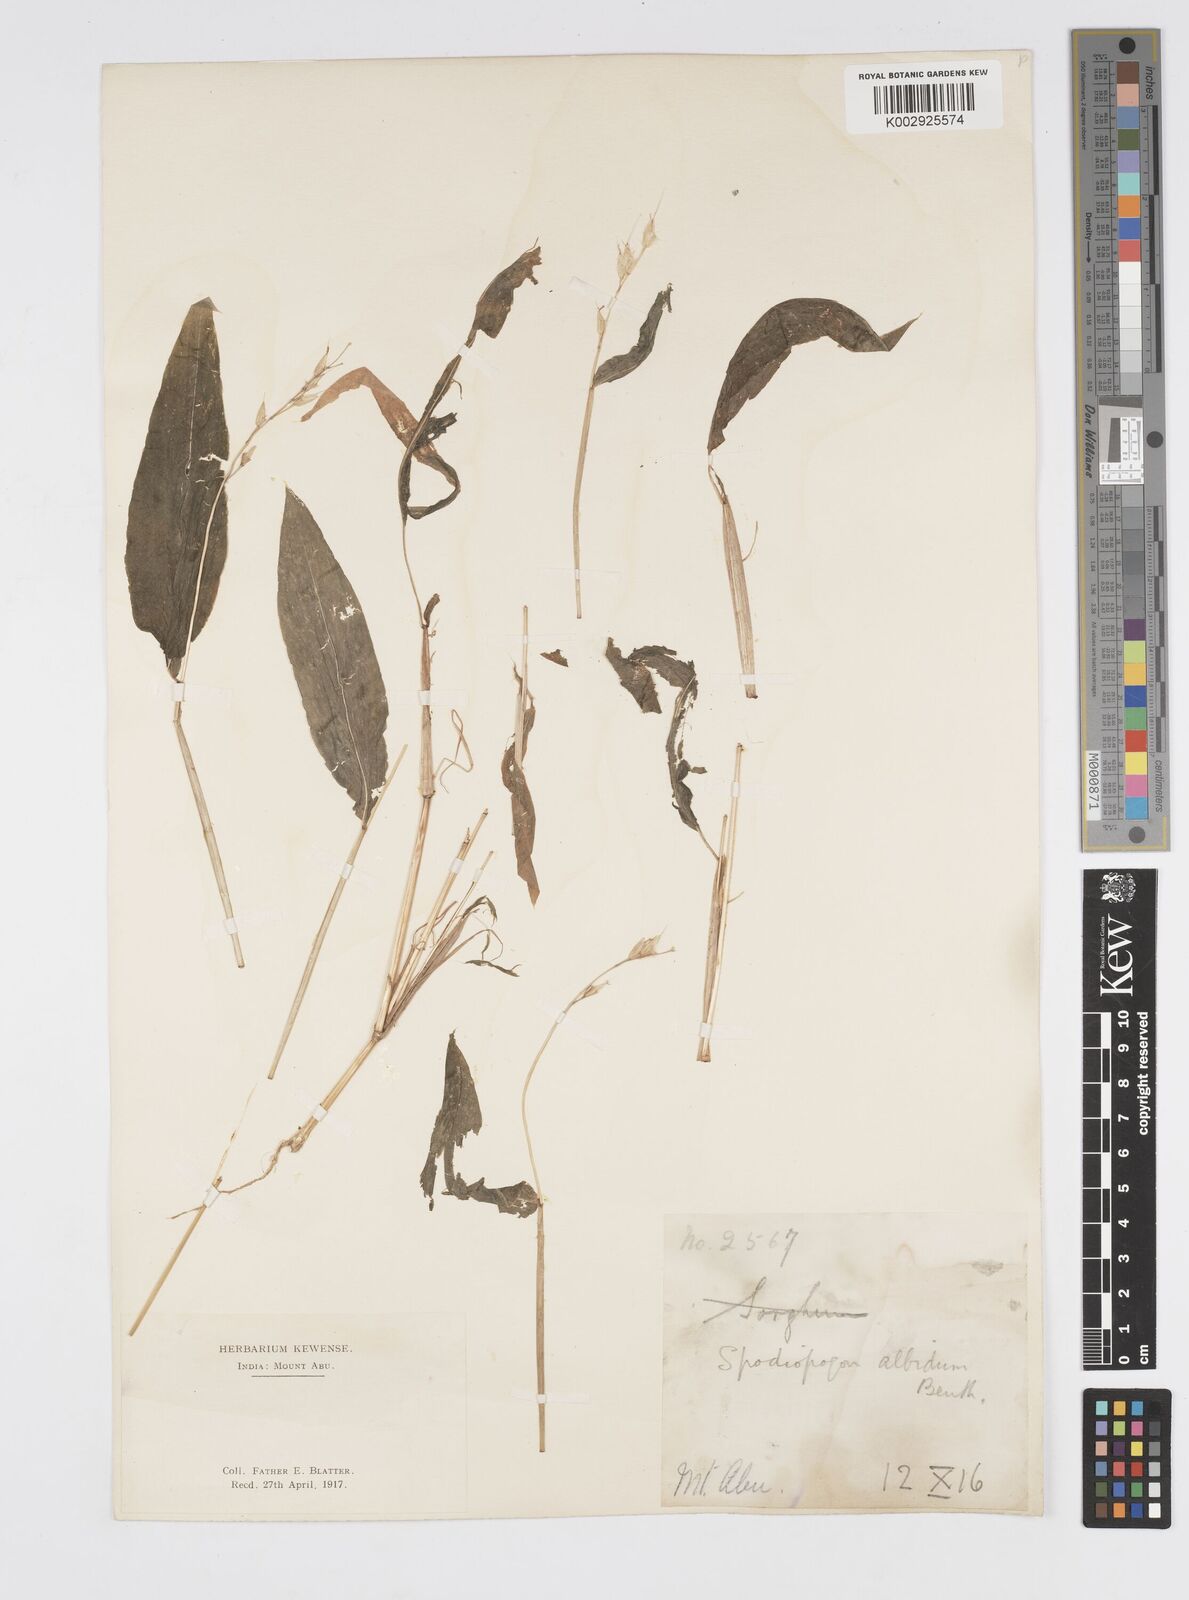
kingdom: Plantae
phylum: Tracheophyta
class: Liliopsida
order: Poales
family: Poaceae
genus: Spodiopogon
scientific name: Spodiopogon rhizophorus
